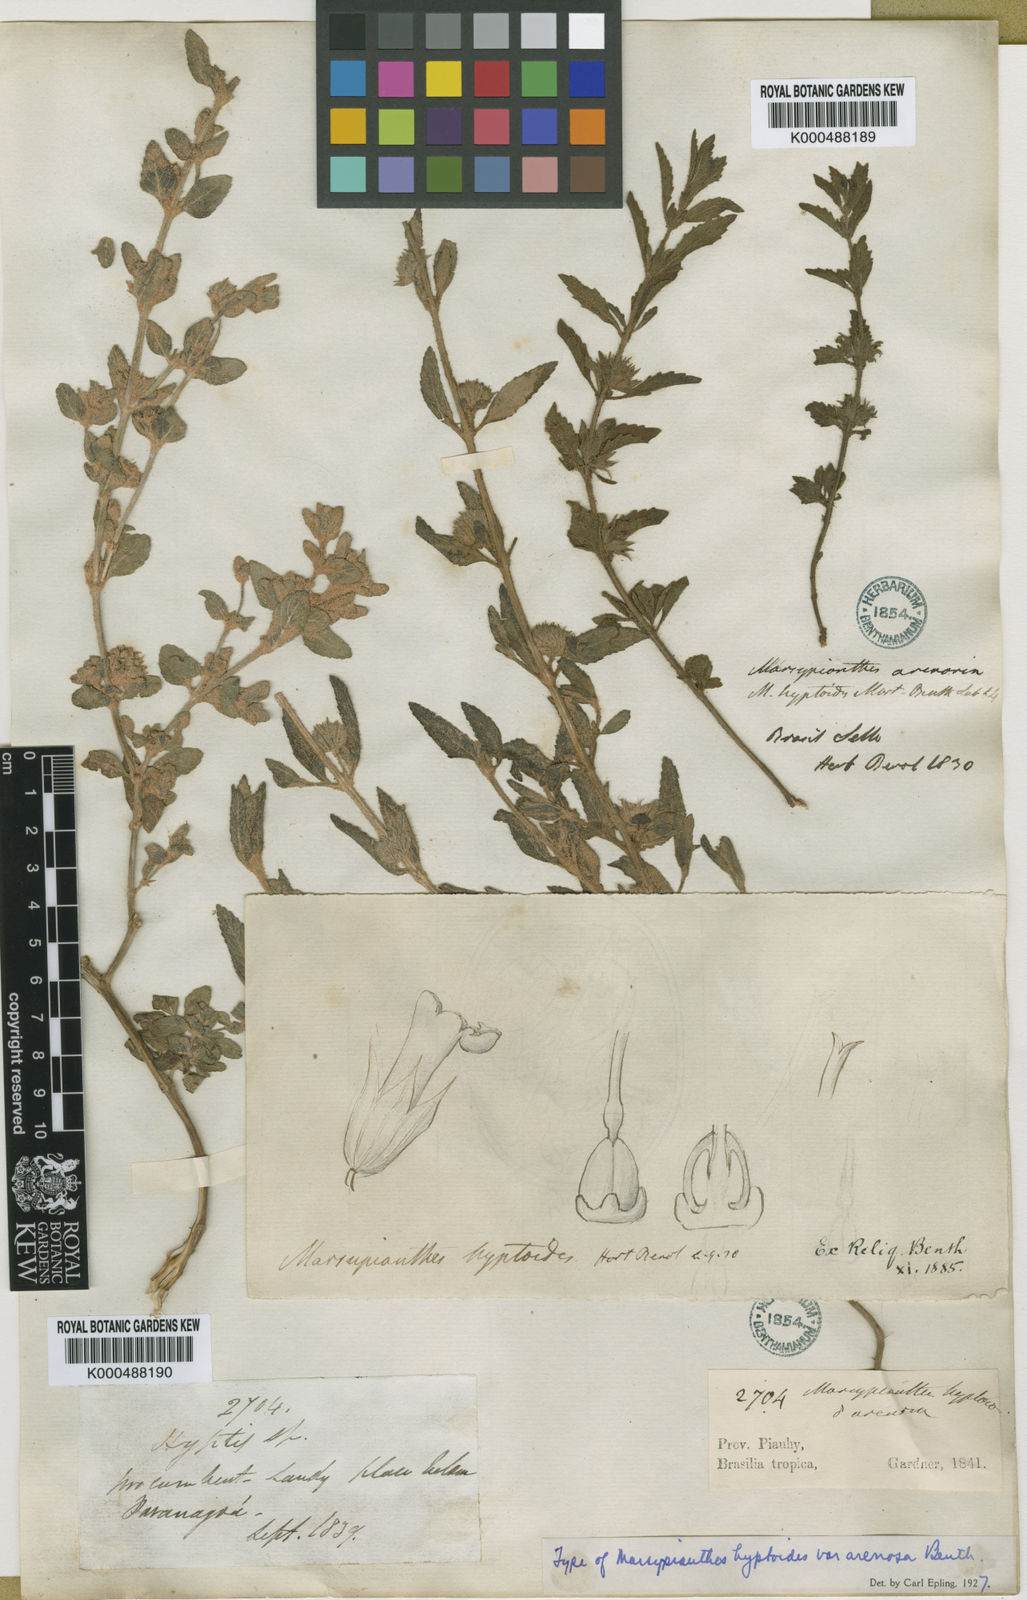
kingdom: Plantae
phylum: Tracheophyta
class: Magnoliopsida
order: Lamiales
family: Lamiaceae
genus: Marsypianthes
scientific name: Marsypianthes chamaedrys
